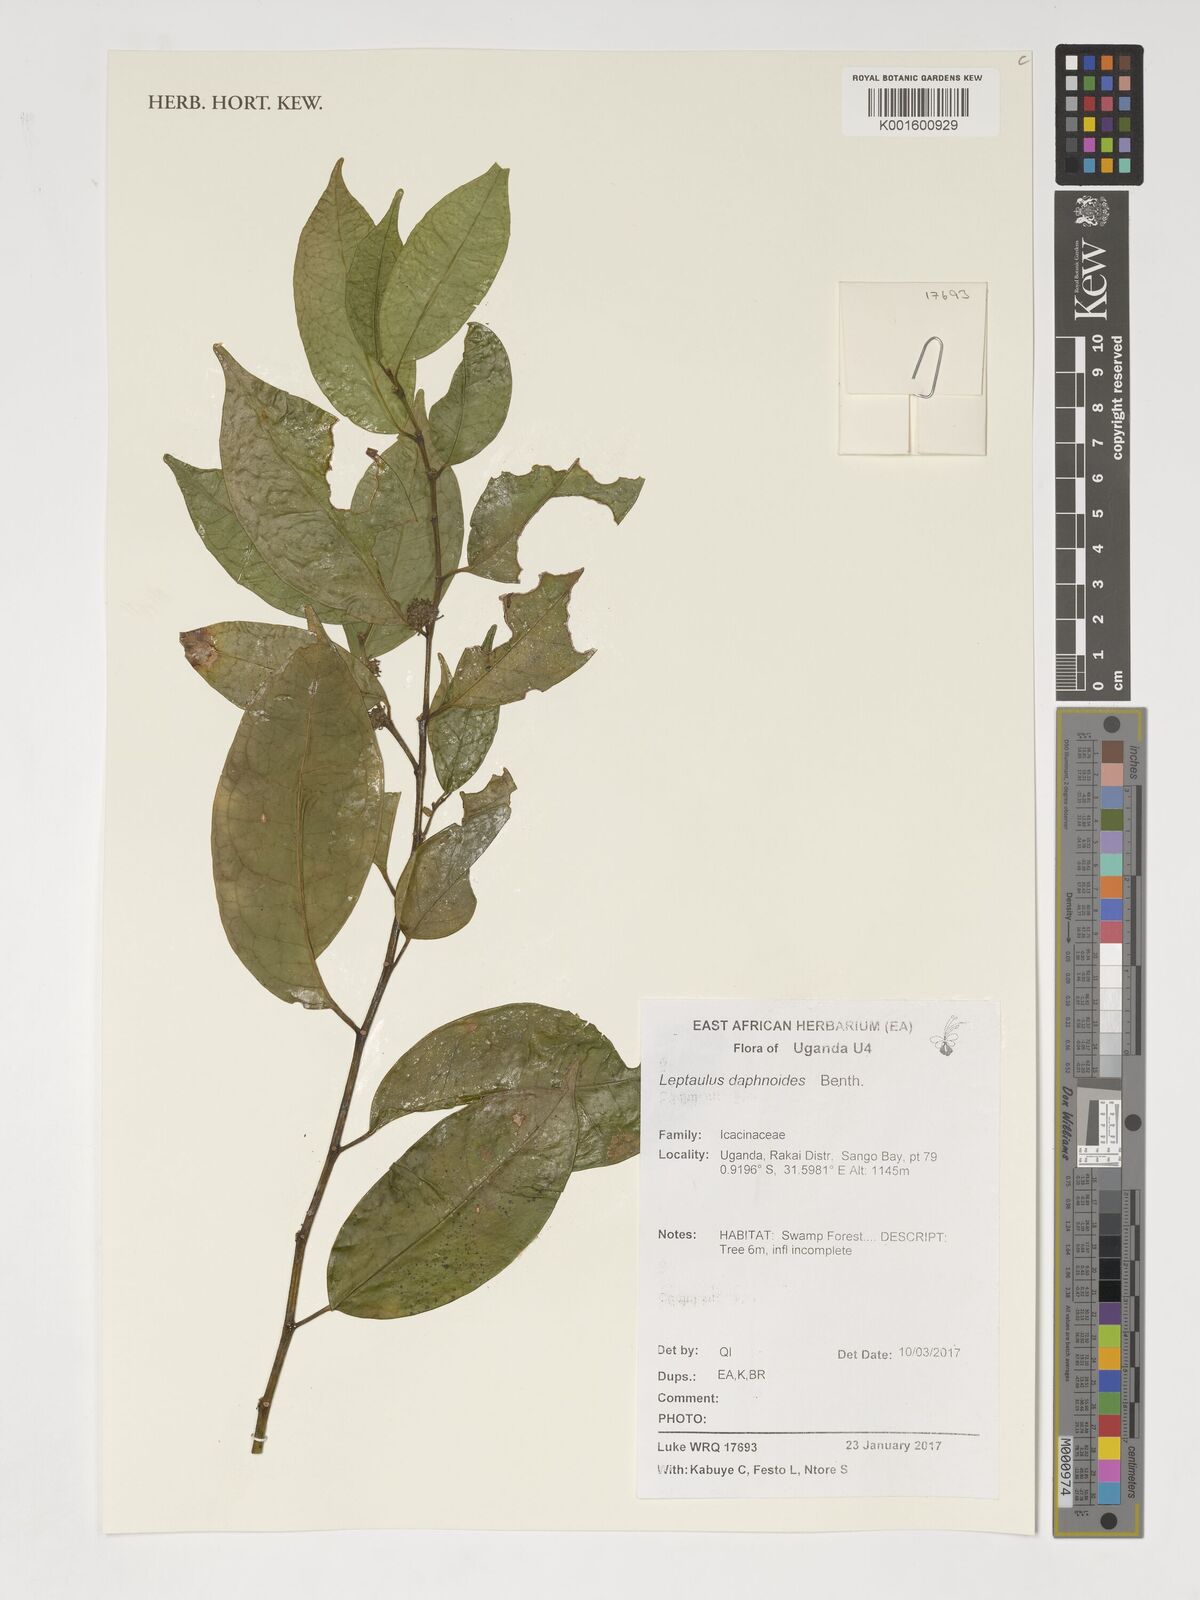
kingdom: Plantae
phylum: Tracheophyta
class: Magnoliopsida
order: Cardiopteridales
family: Cardiopteridaceae
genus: Leptaulus
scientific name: Leptaulus daphnoides
